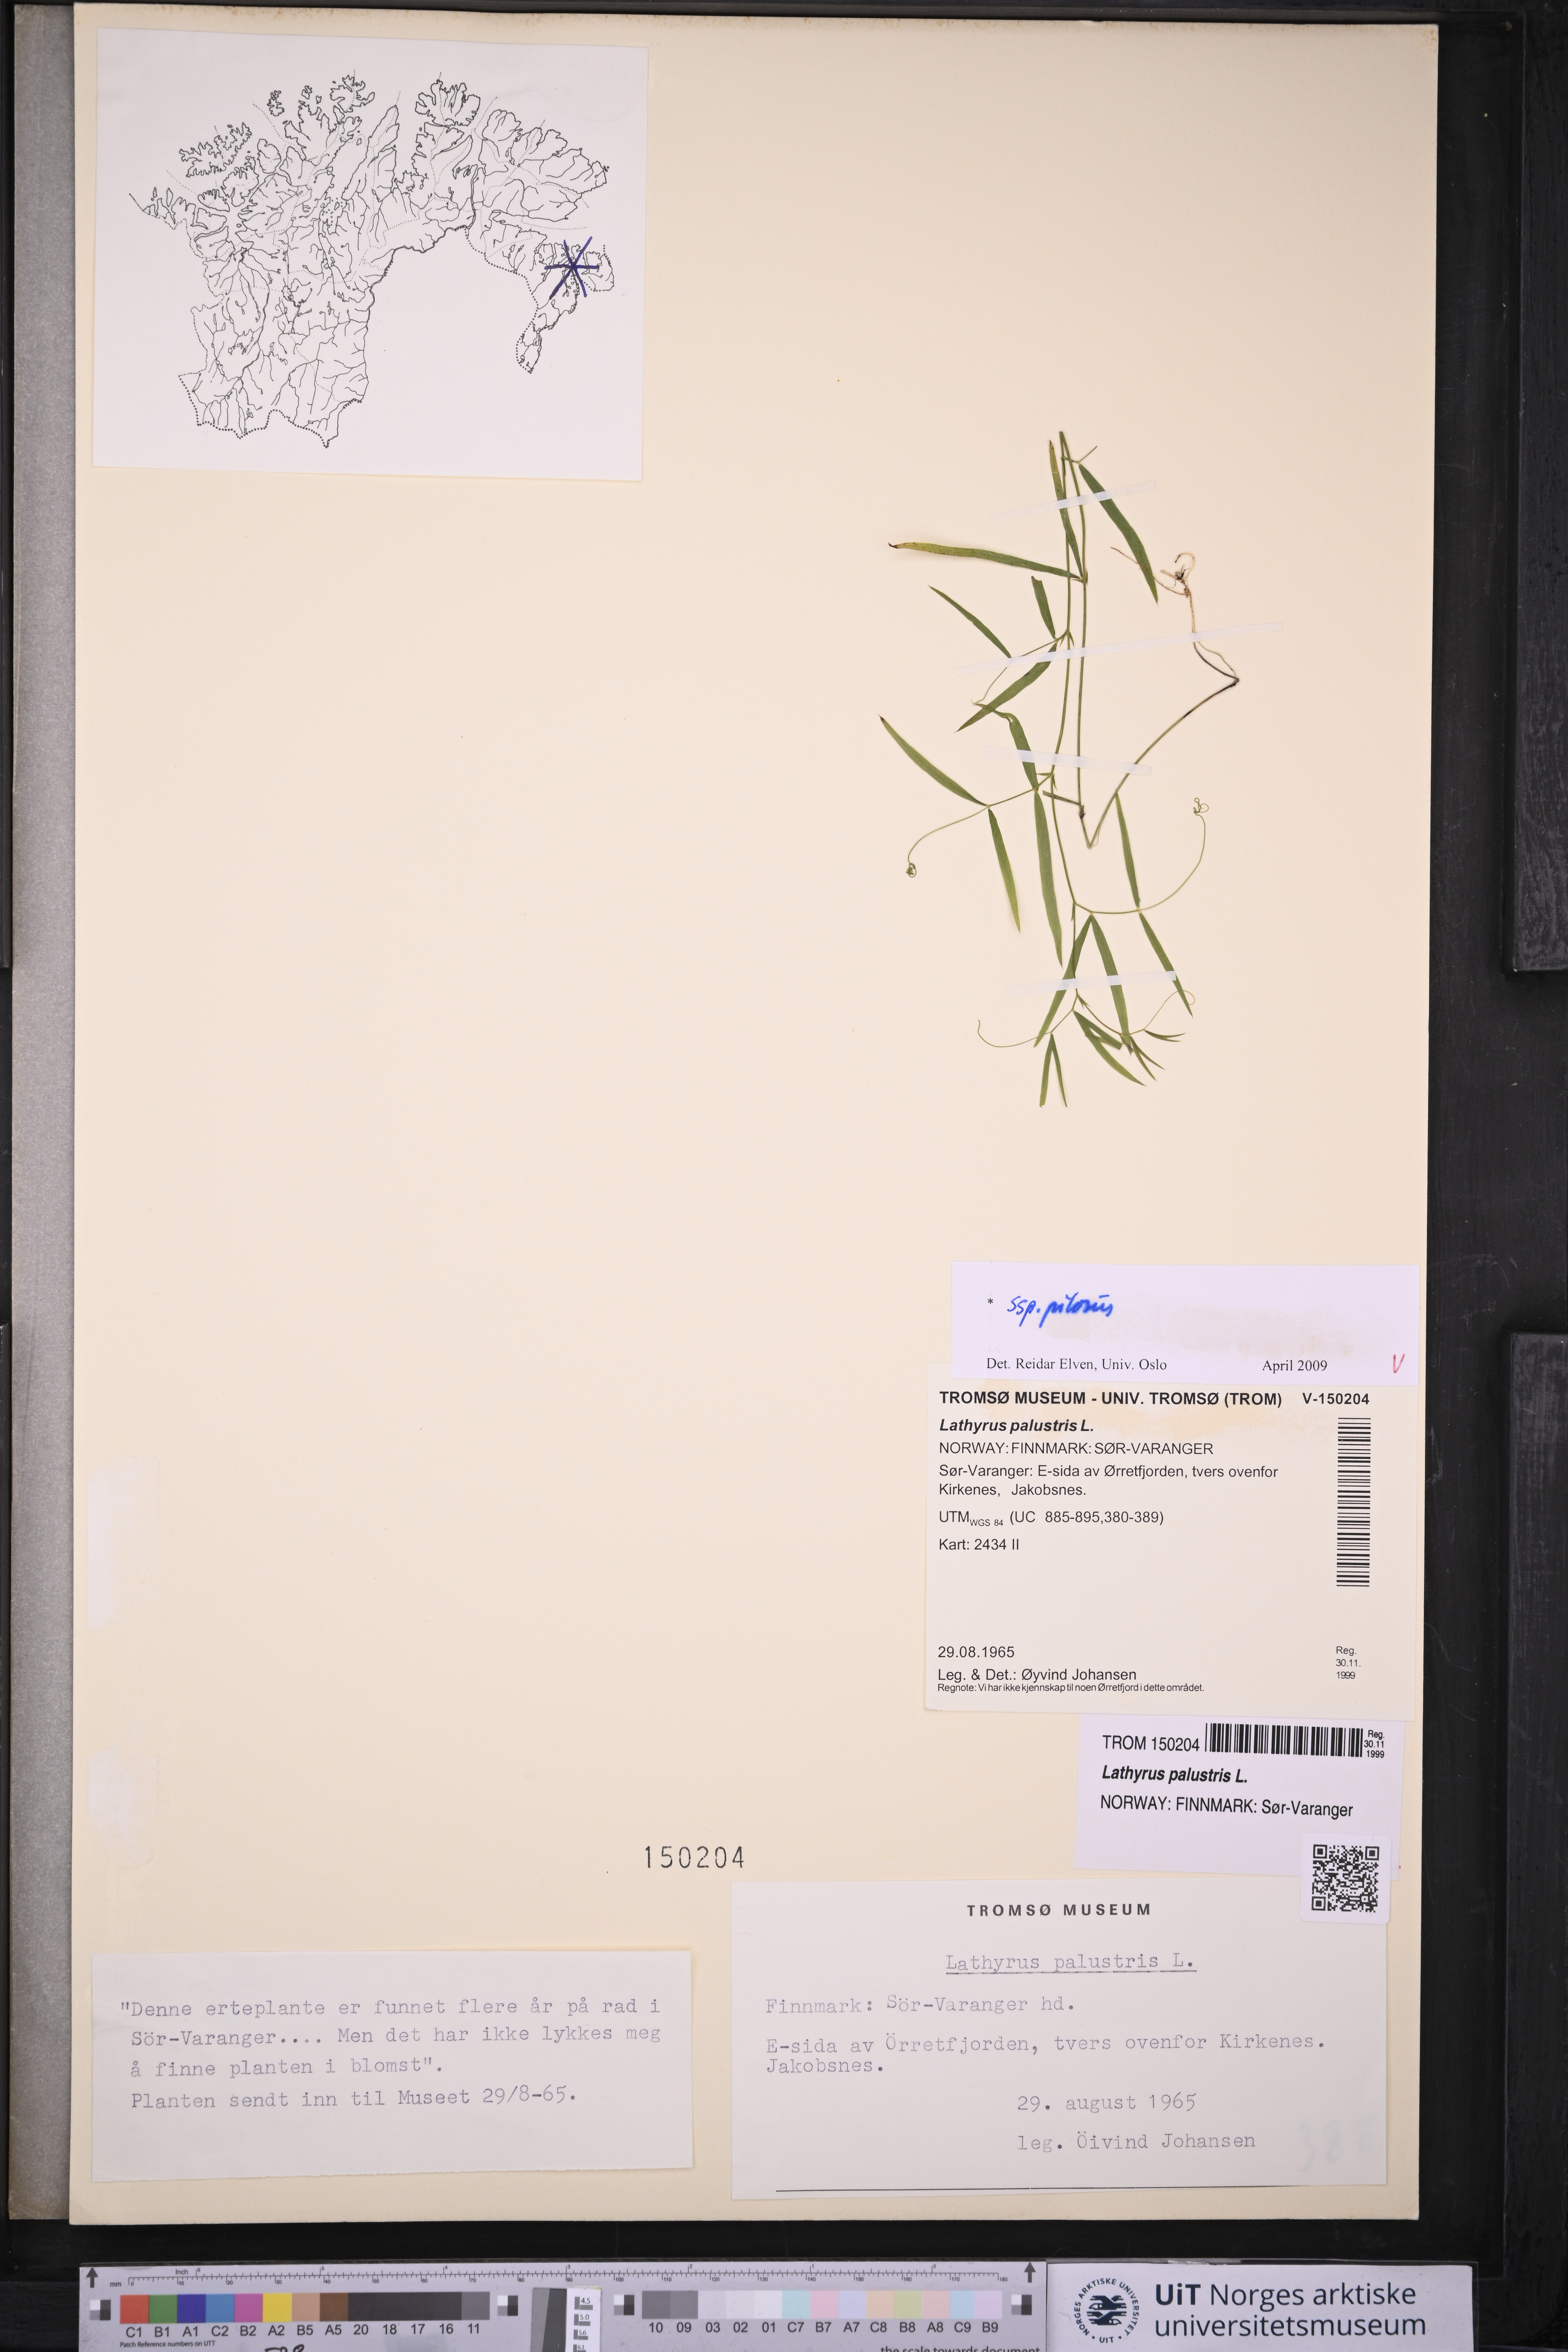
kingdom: Plantae
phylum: Tracheophyta
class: Magnoliopsida
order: Fabales
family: Fabaceae
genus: Lathyrus
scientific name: Lathyrus palustris
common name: Marsh pea
